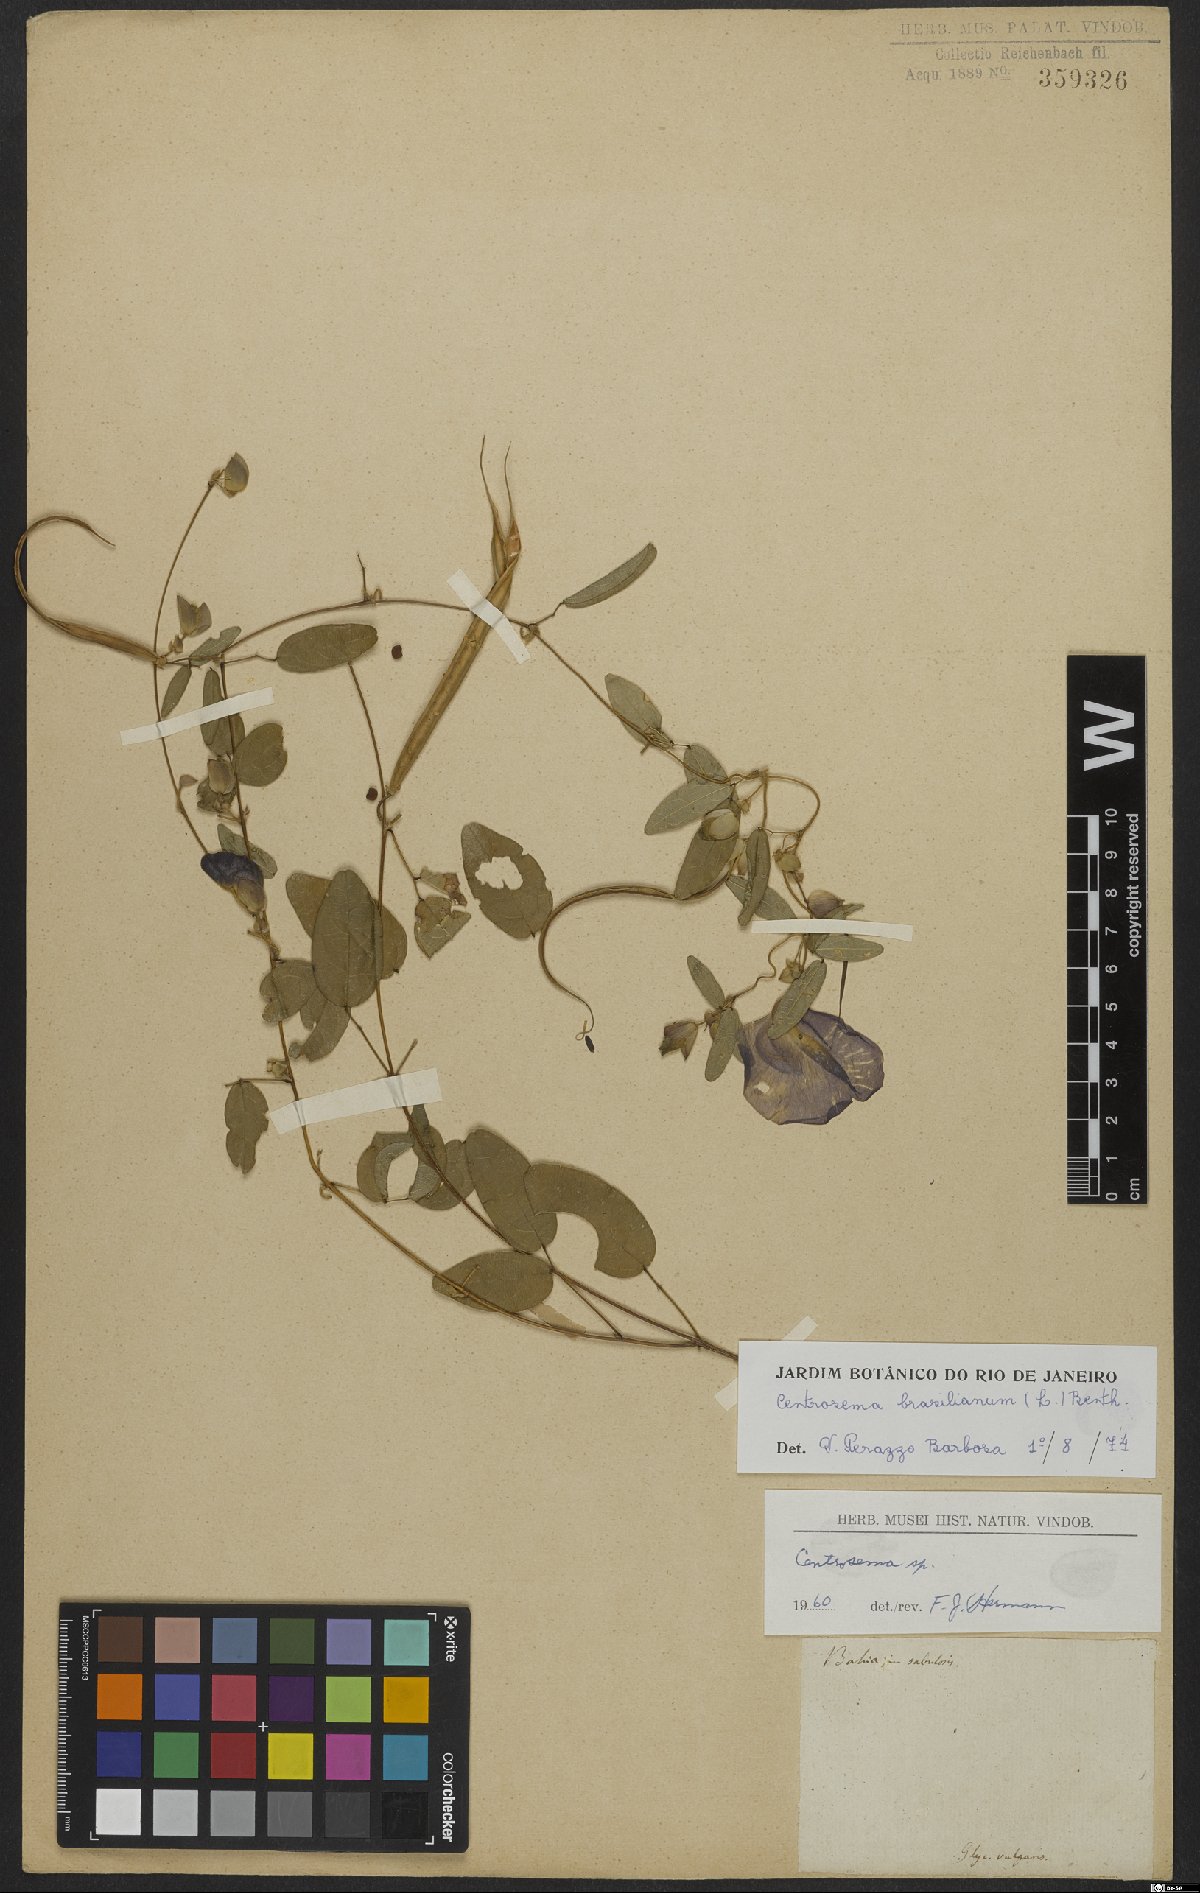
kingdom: Plantae
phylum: Tracheophyta
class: Magnoliopsida
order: Fabales
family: Fabaceae
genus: Centrosema
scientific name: Centrosema brasilianum
